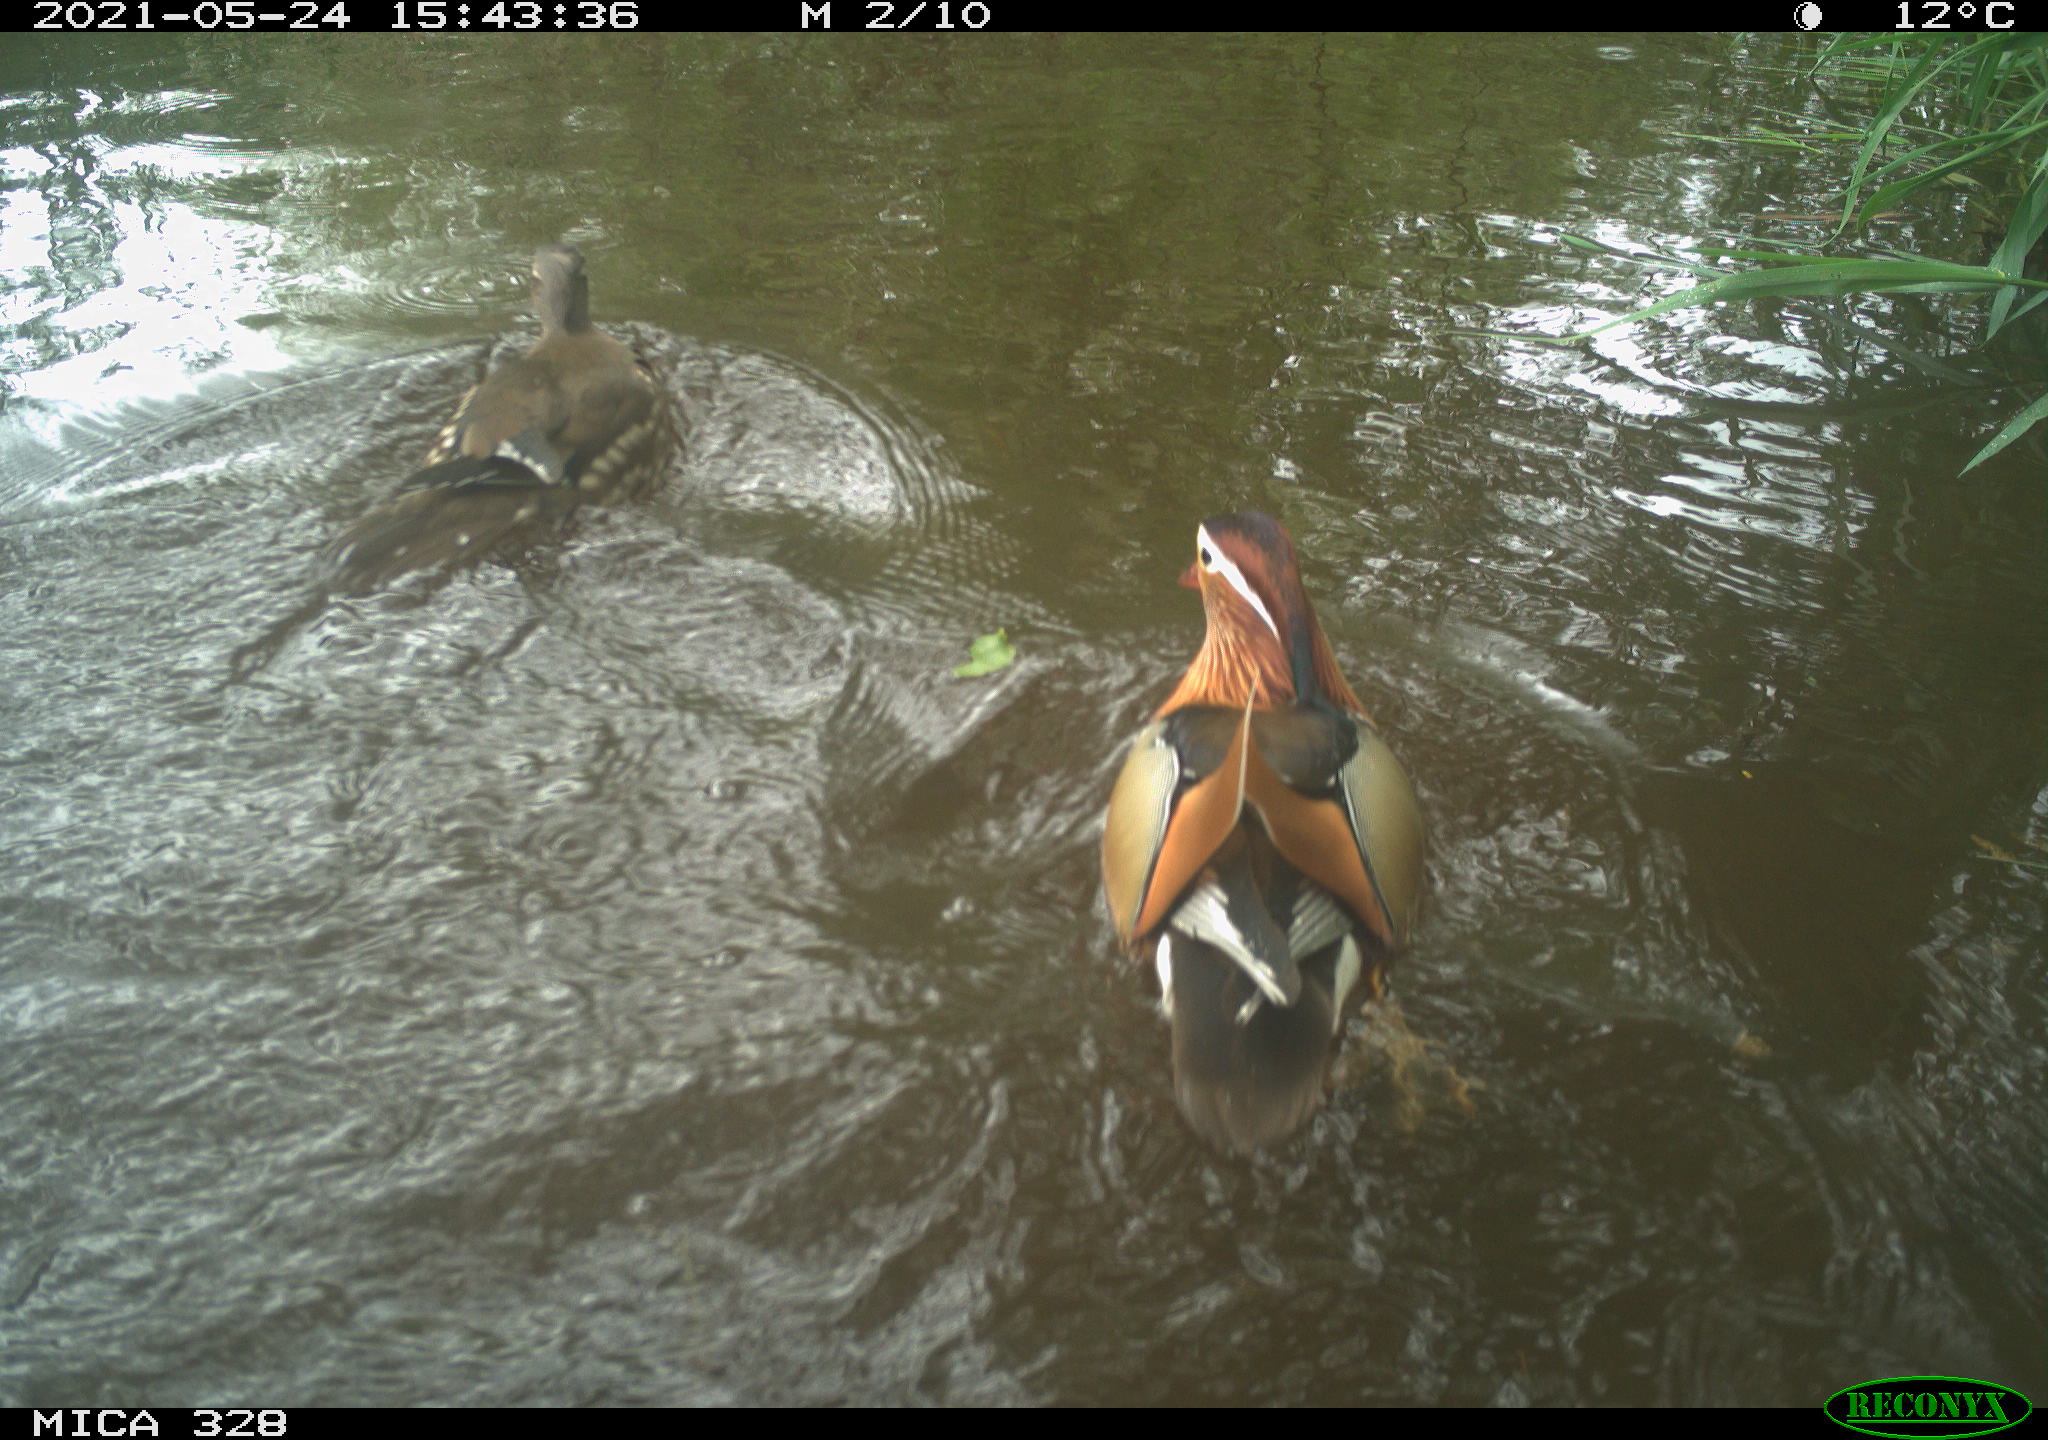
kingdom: Animalia
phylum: Chordata
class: Aves
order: Anseriformes
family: Anatidae
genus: Aix
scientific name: Aix galericulata
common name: Mandarin duck
